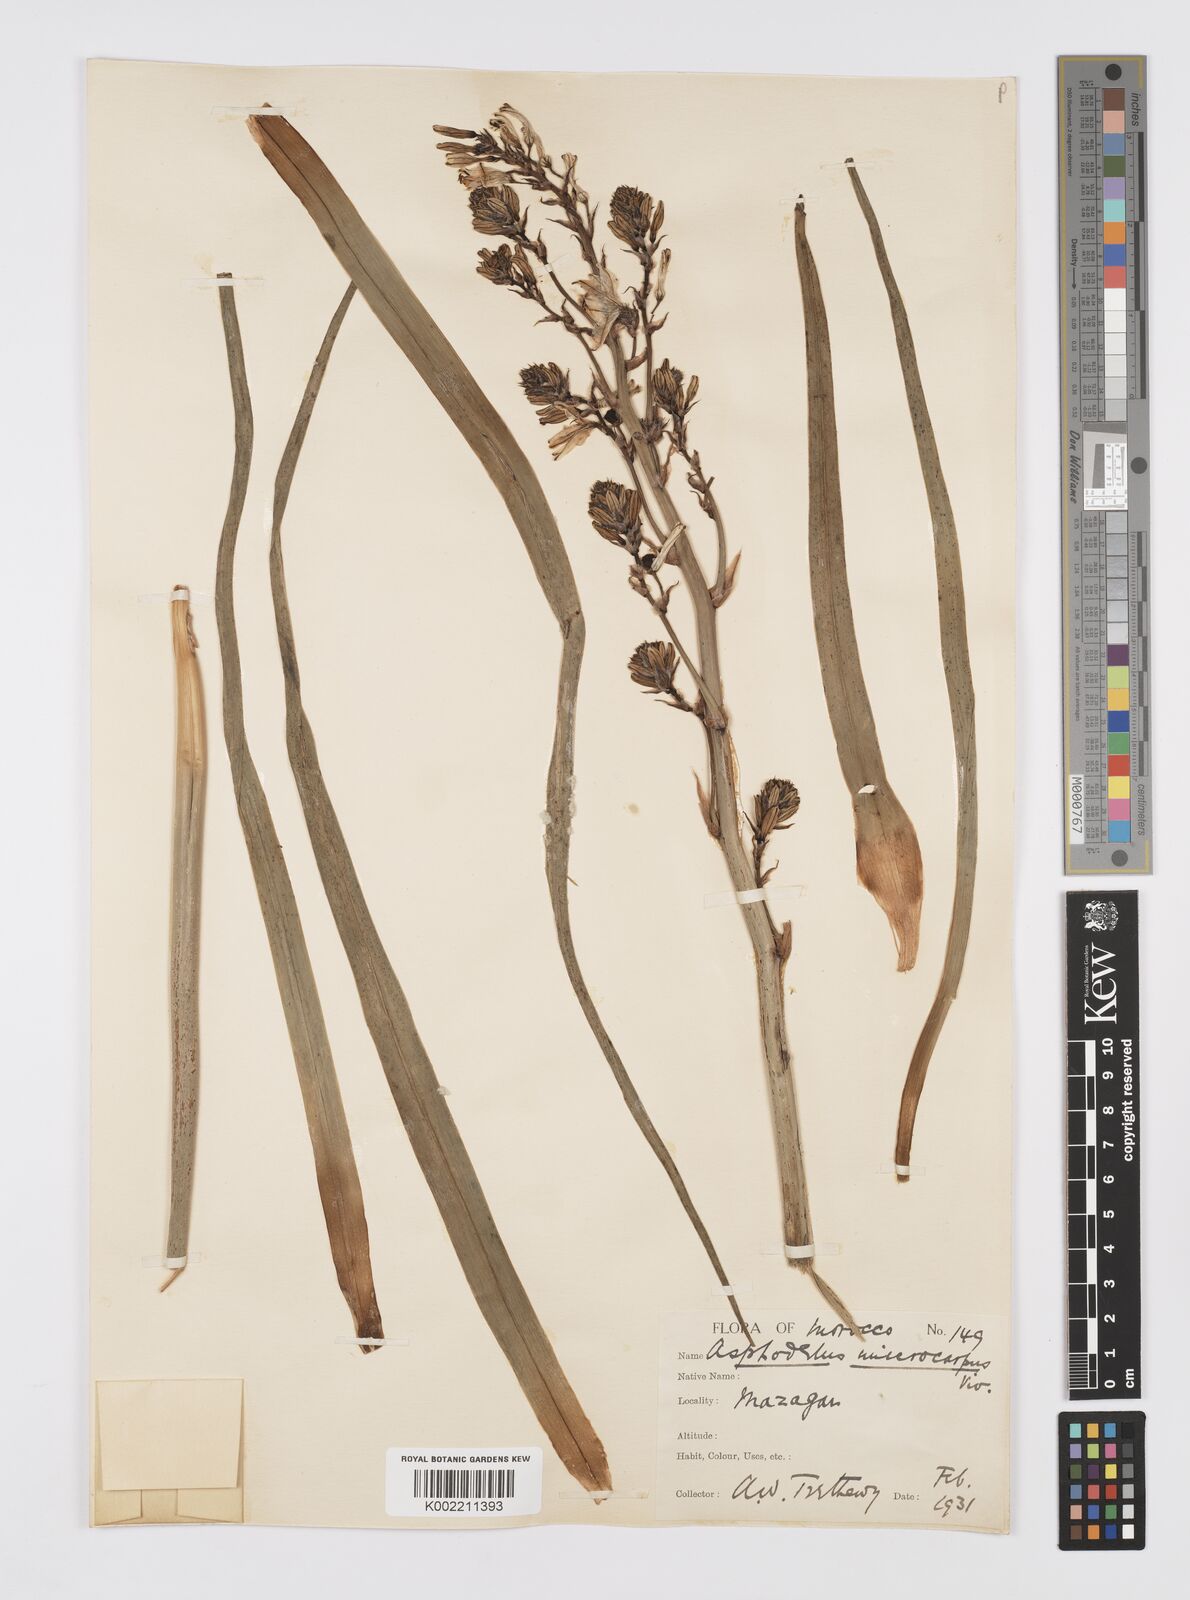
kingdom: Plantae
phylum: Tracheophyta
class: Liliopsida
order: Asparagales
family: Asphodelaceae
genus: Asphodelus
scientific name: Asphodelus ramosus
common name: Silverrod
